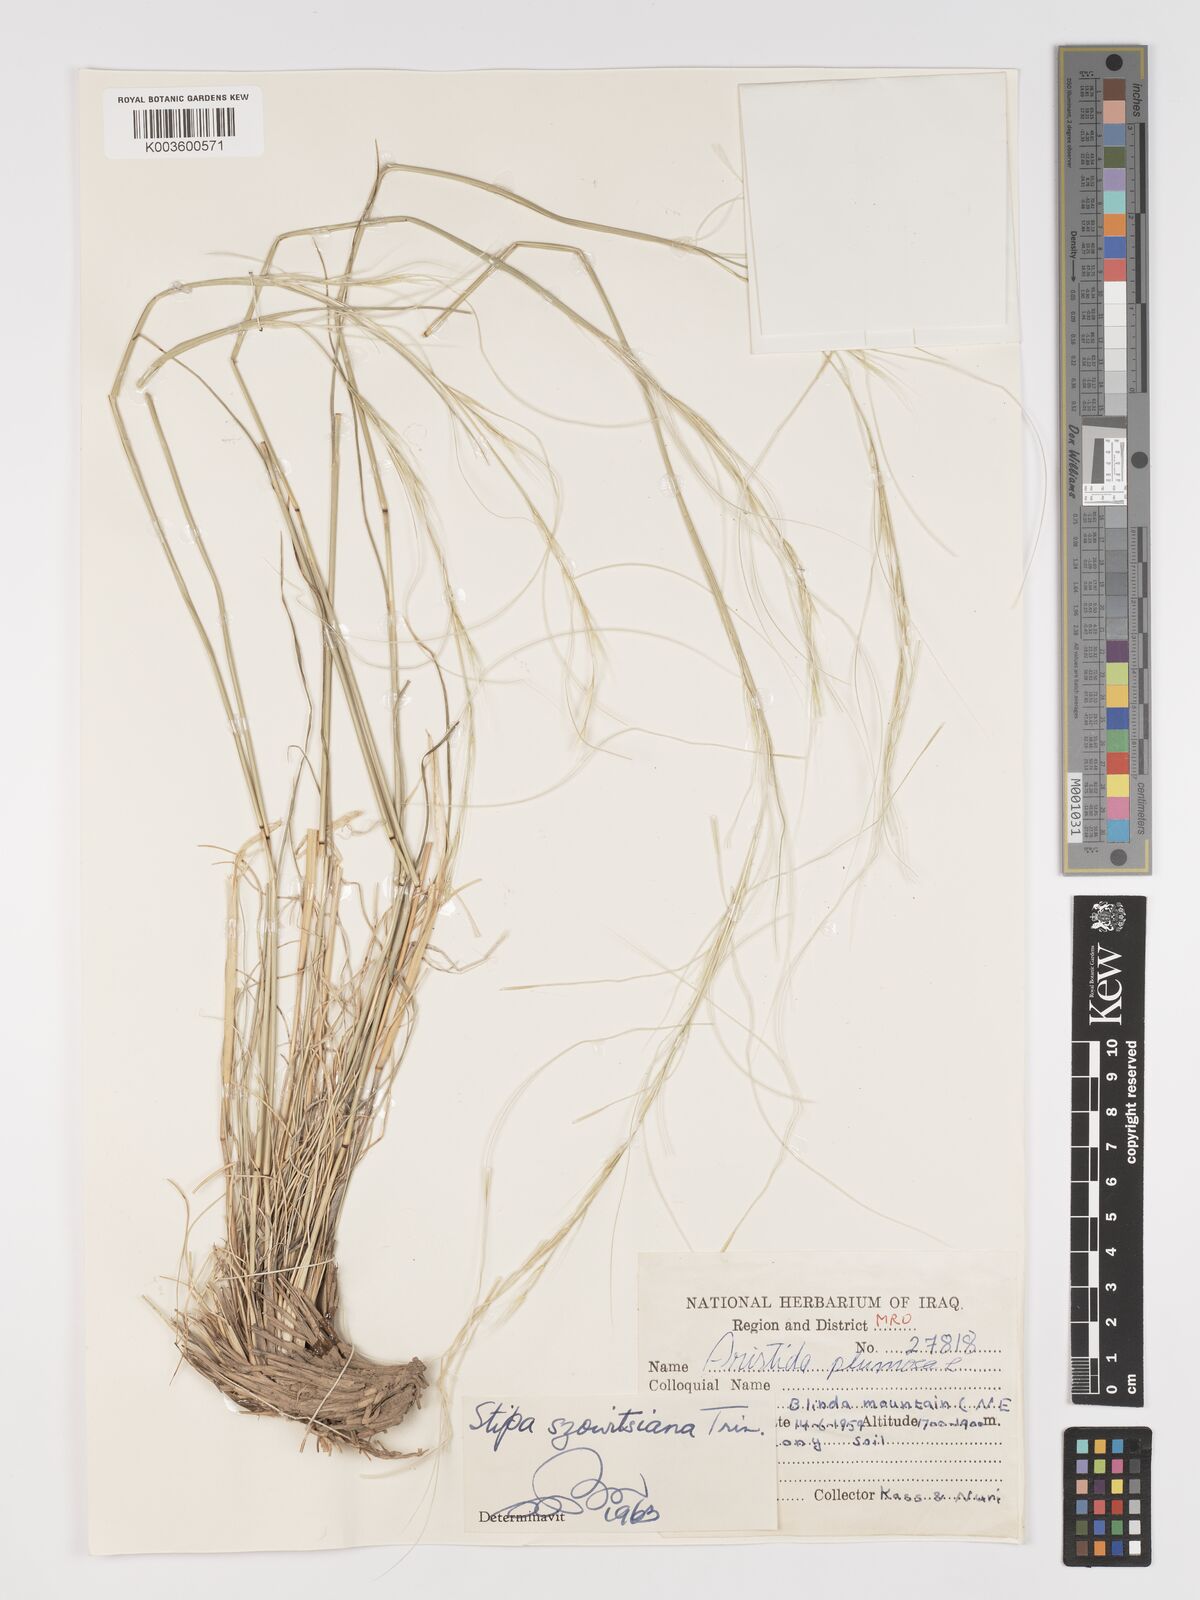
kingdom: Plantae
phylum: Tracheophyta
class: Liliopsida
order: Poales
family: Poaceae
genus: Stipa
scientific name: Stipa barbata
